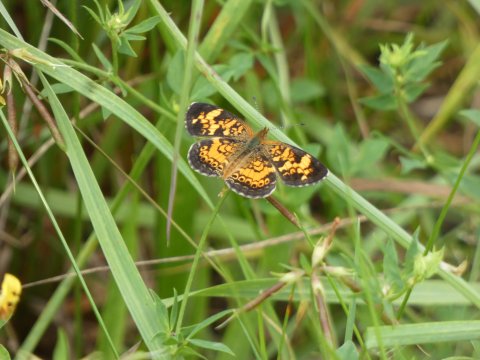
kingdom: Animalia
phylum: Arthropoda
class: Insecta
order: Lepidoptera
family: Nymphalidae
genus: Phyciodes
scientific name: Phyciodes tharos
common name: Pearl Crescent
